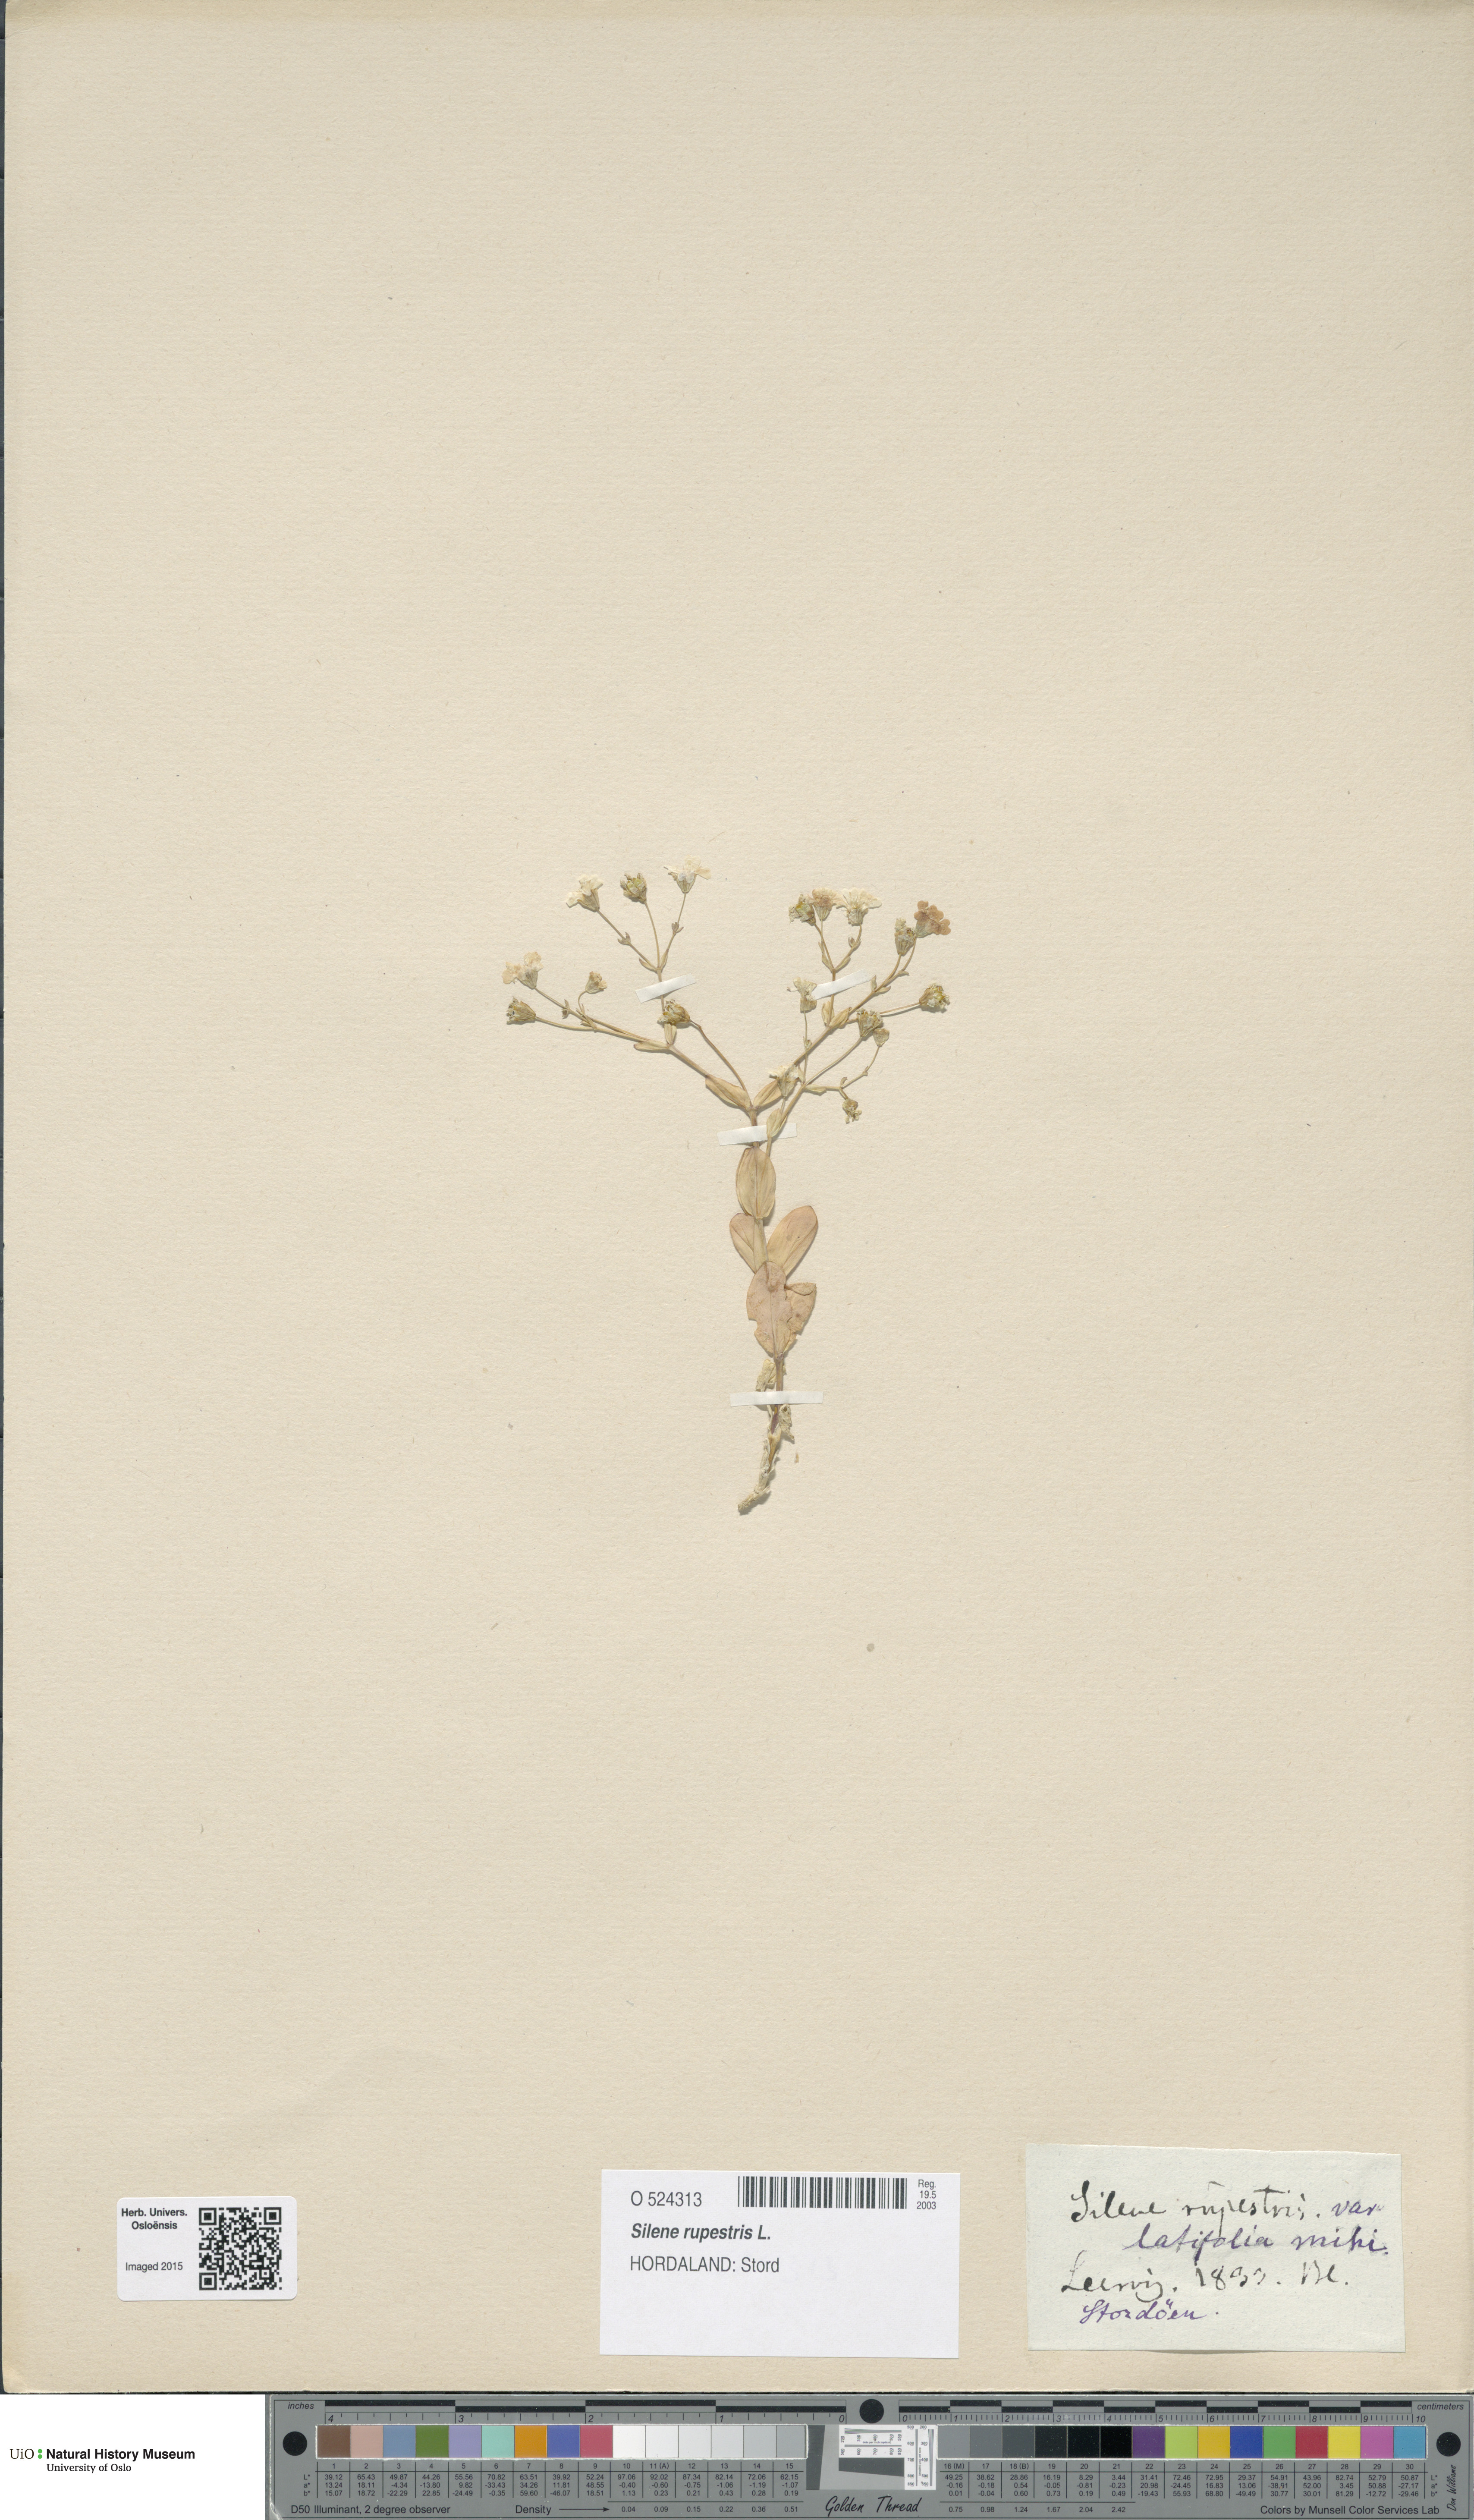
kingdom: Plantae
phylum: Tracheophyta
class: Magnoliopsida
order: Caryophyllales
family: Caryophyllaceae
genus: Atocion
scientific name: Atocion rupestre
